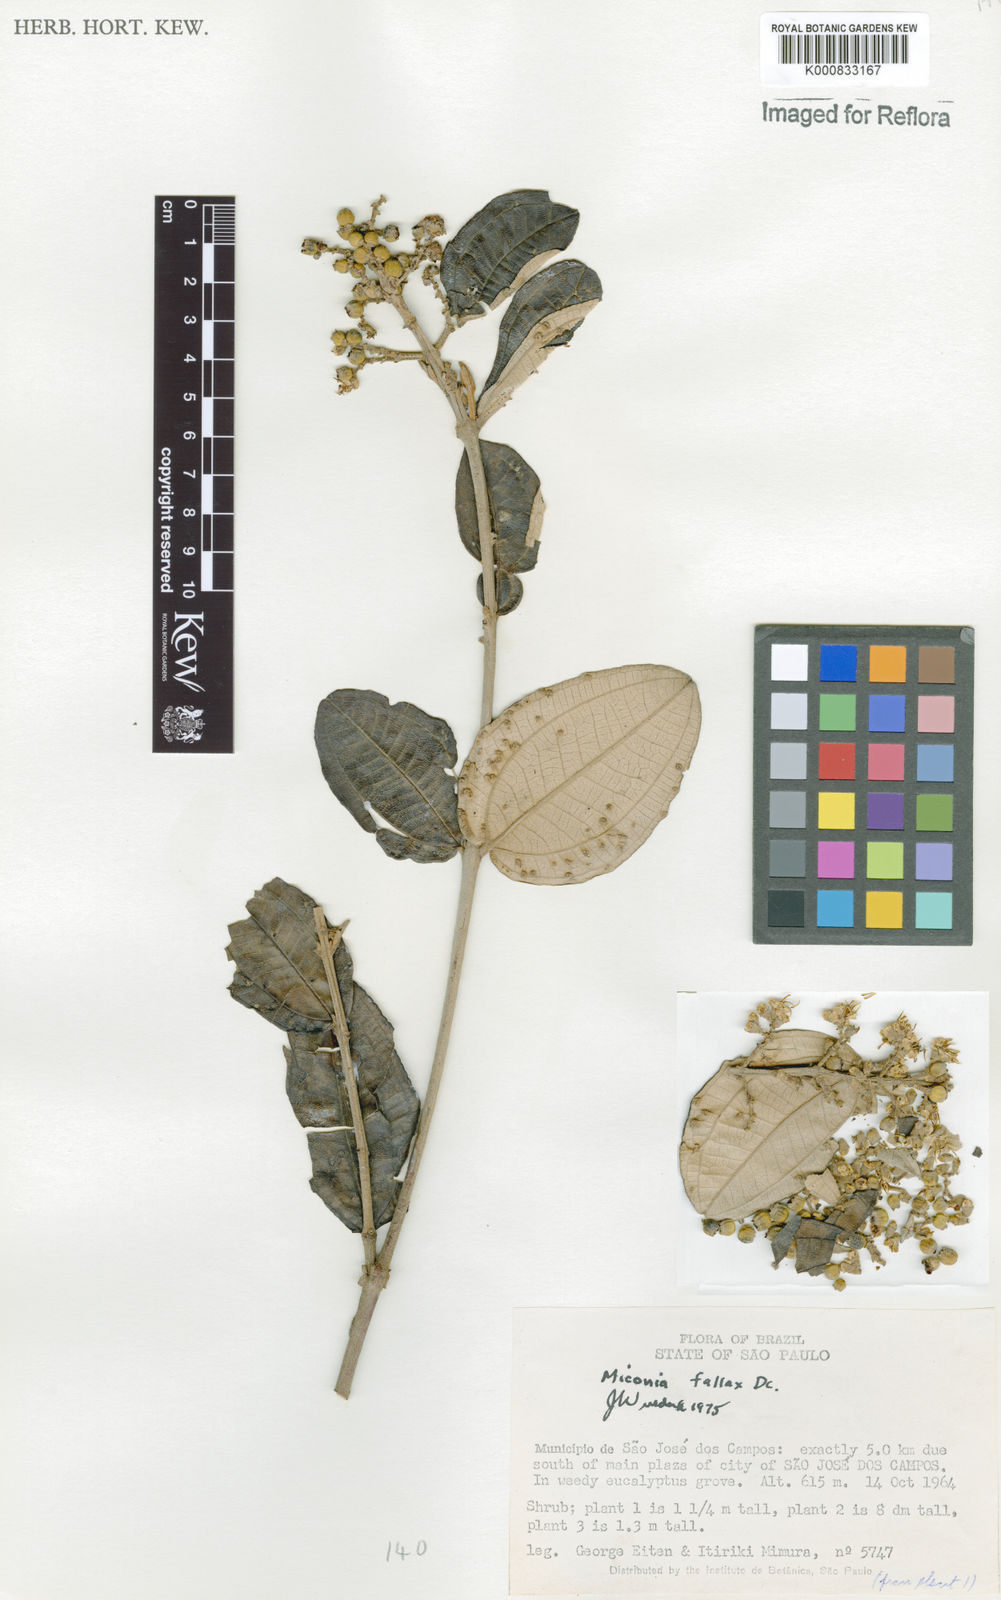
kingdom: Plantae
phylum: Tracheophyta
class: Magnoliopsida
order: Myrtales
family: Melastomataceae
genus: Miconia
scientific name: Miconia fallax
